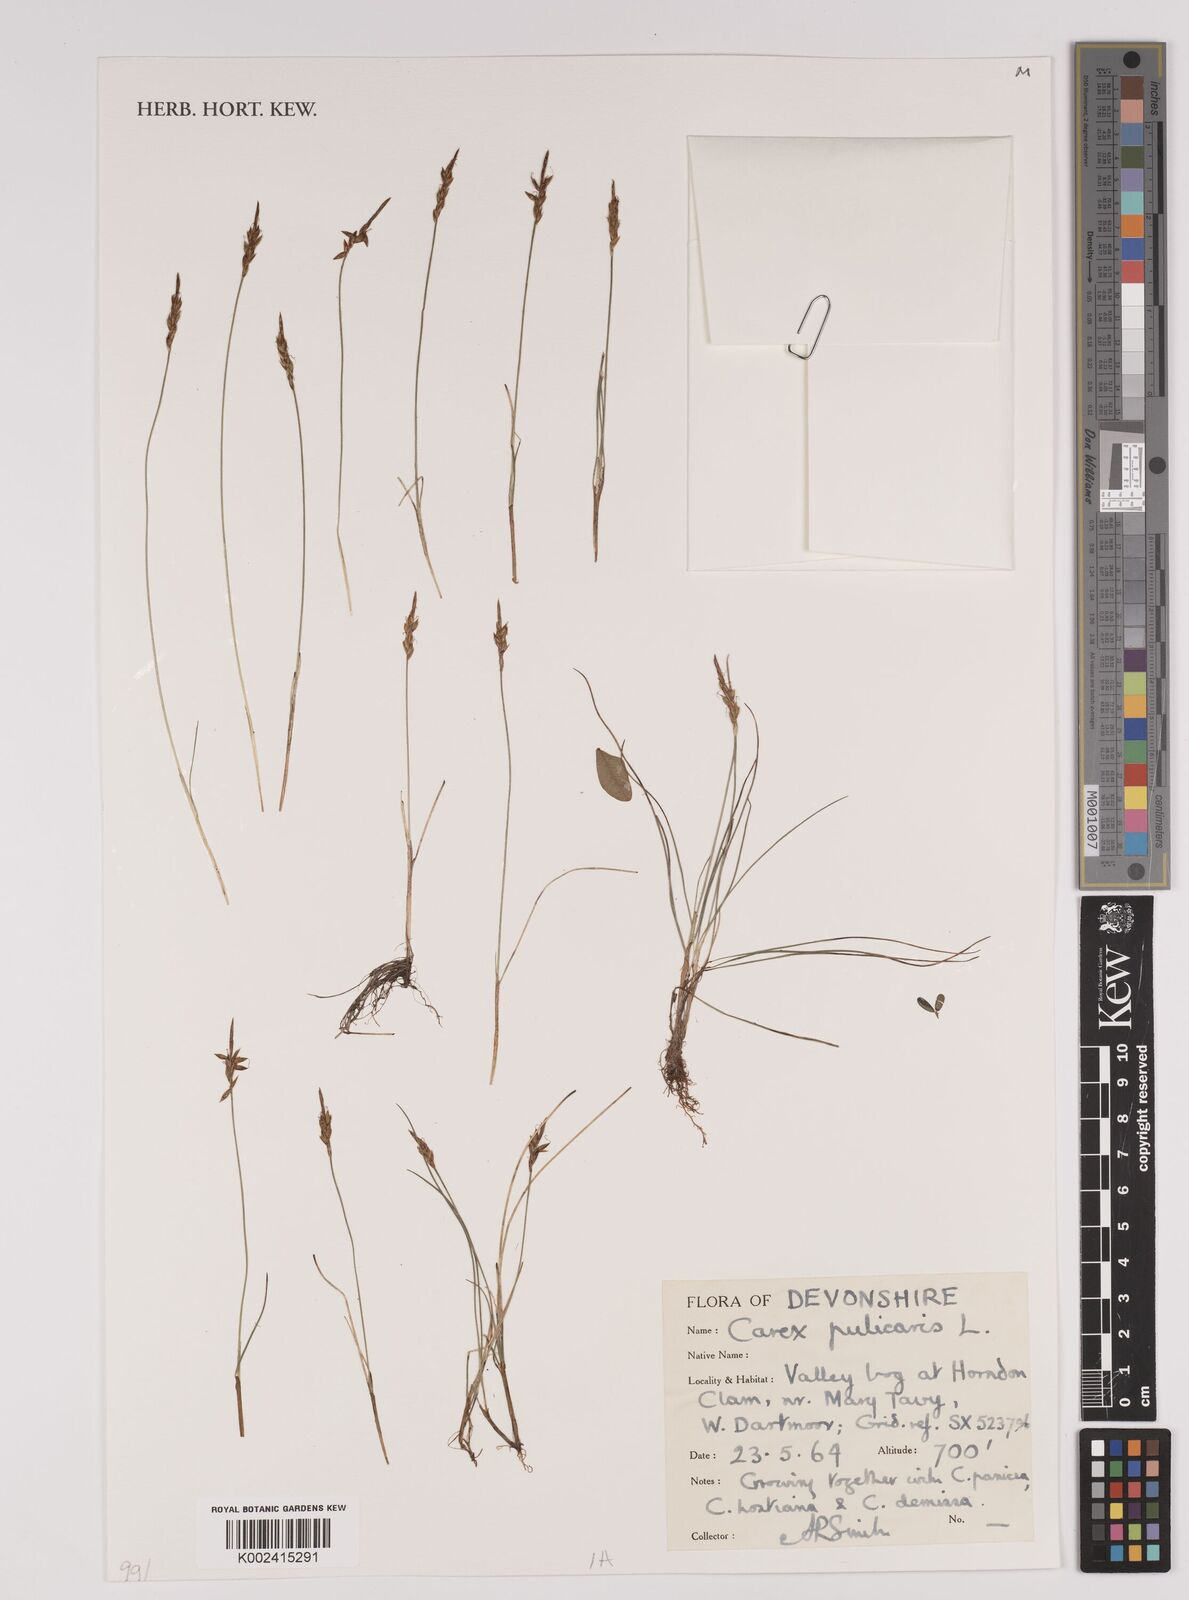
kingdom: Plantae
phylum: Tracheophyta
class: Liliopsida
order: Poales
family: Cyperaceae
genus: Carex
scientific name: Carex pulicaris
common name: Flea sedge
